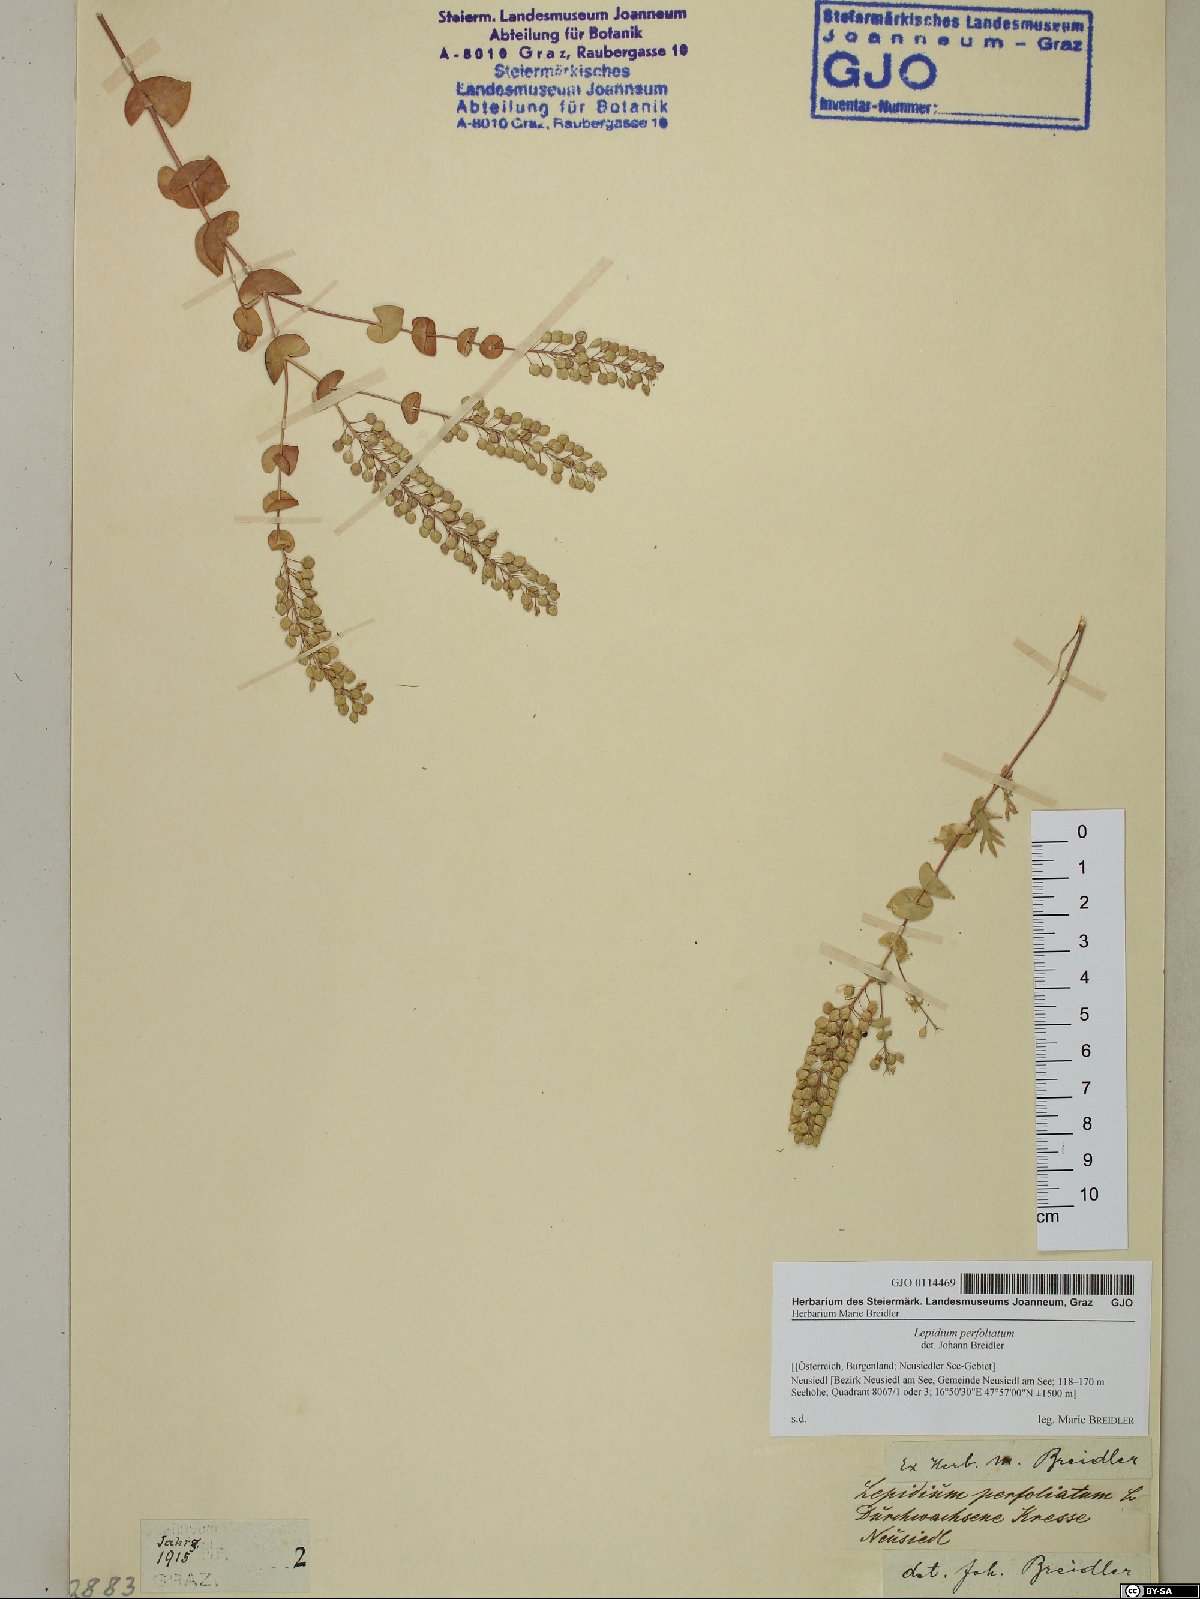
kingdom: Plantae
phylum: Tracheophyta
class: Magnoliopsida
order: Brassicales
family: Brassicaceae
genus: Lepidium
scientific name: Lepidium perfoliatum
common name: Perfoliate pepperwort
